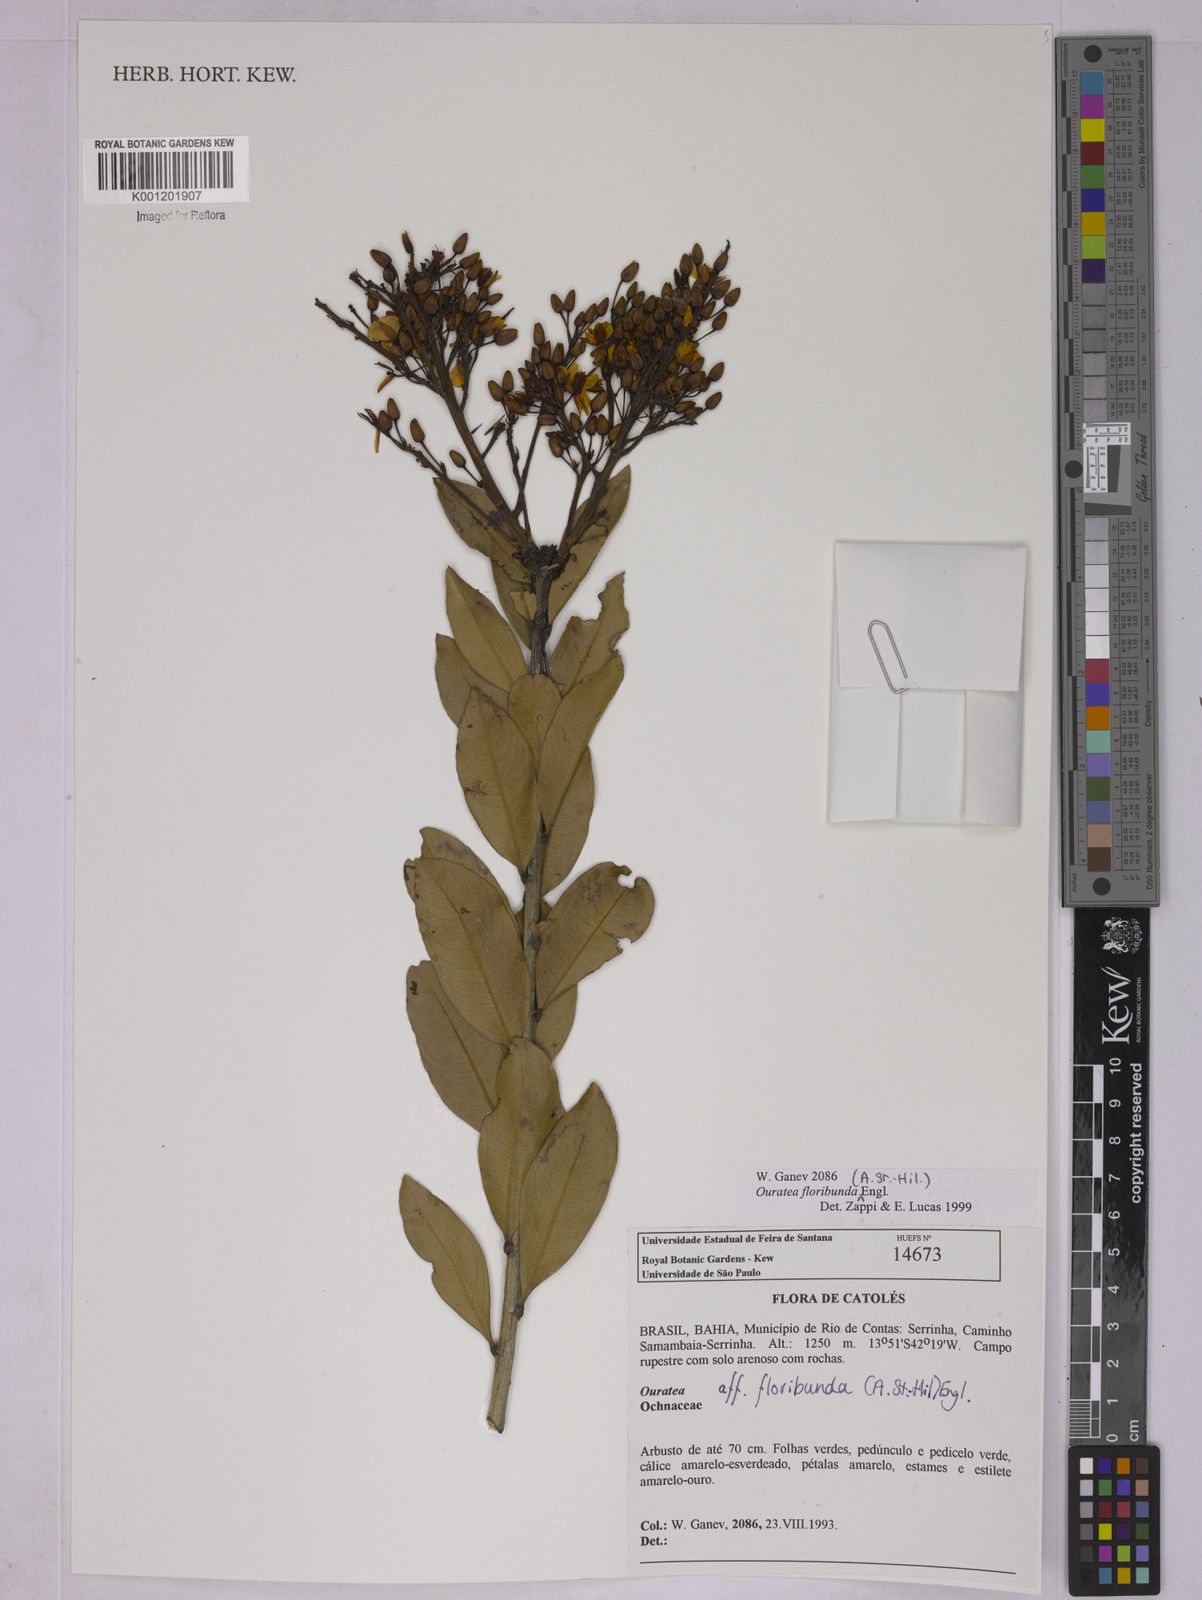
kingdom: Plantae
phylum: Tracheophyta
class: Magnoliopsida
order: Malpighiales
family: Ochnaceae
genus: Ouratea
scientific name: Ouratea floribunda
